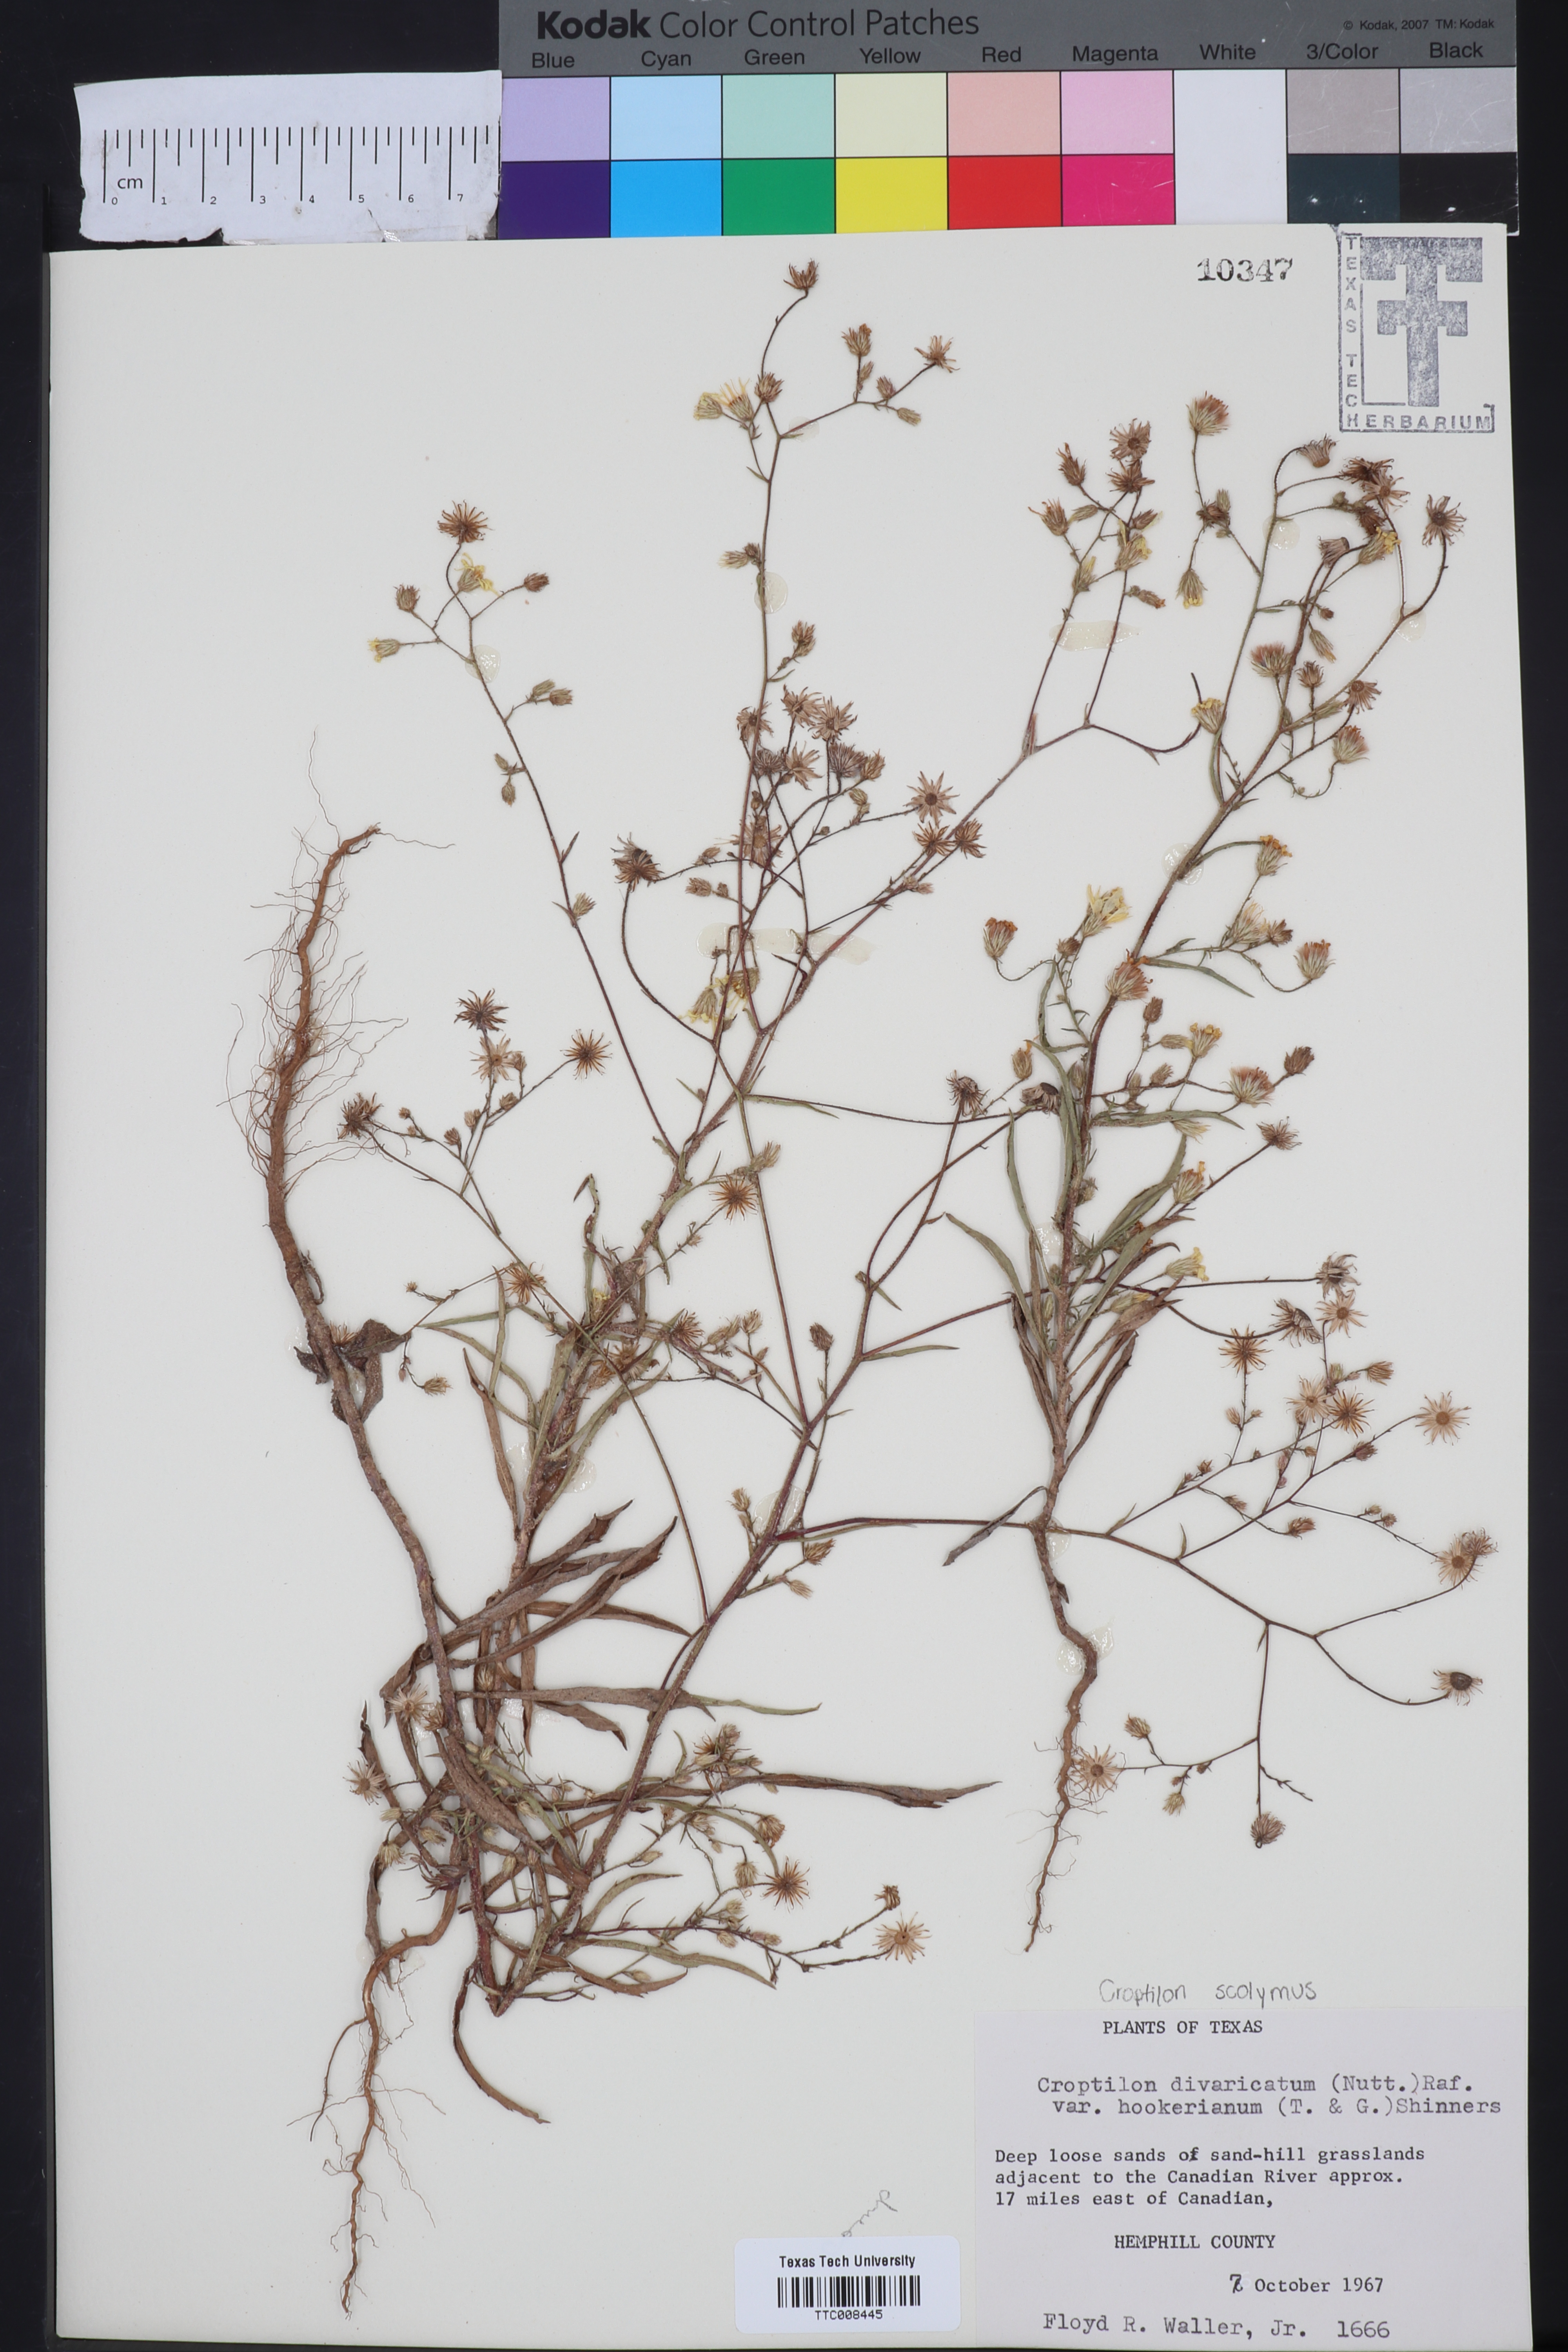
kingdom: Plantae
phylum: Tracheophyta
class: Magnoliopsida
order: Asterales
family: Asteraceae
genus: Croptilon
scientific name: Croptilon hookerianum
